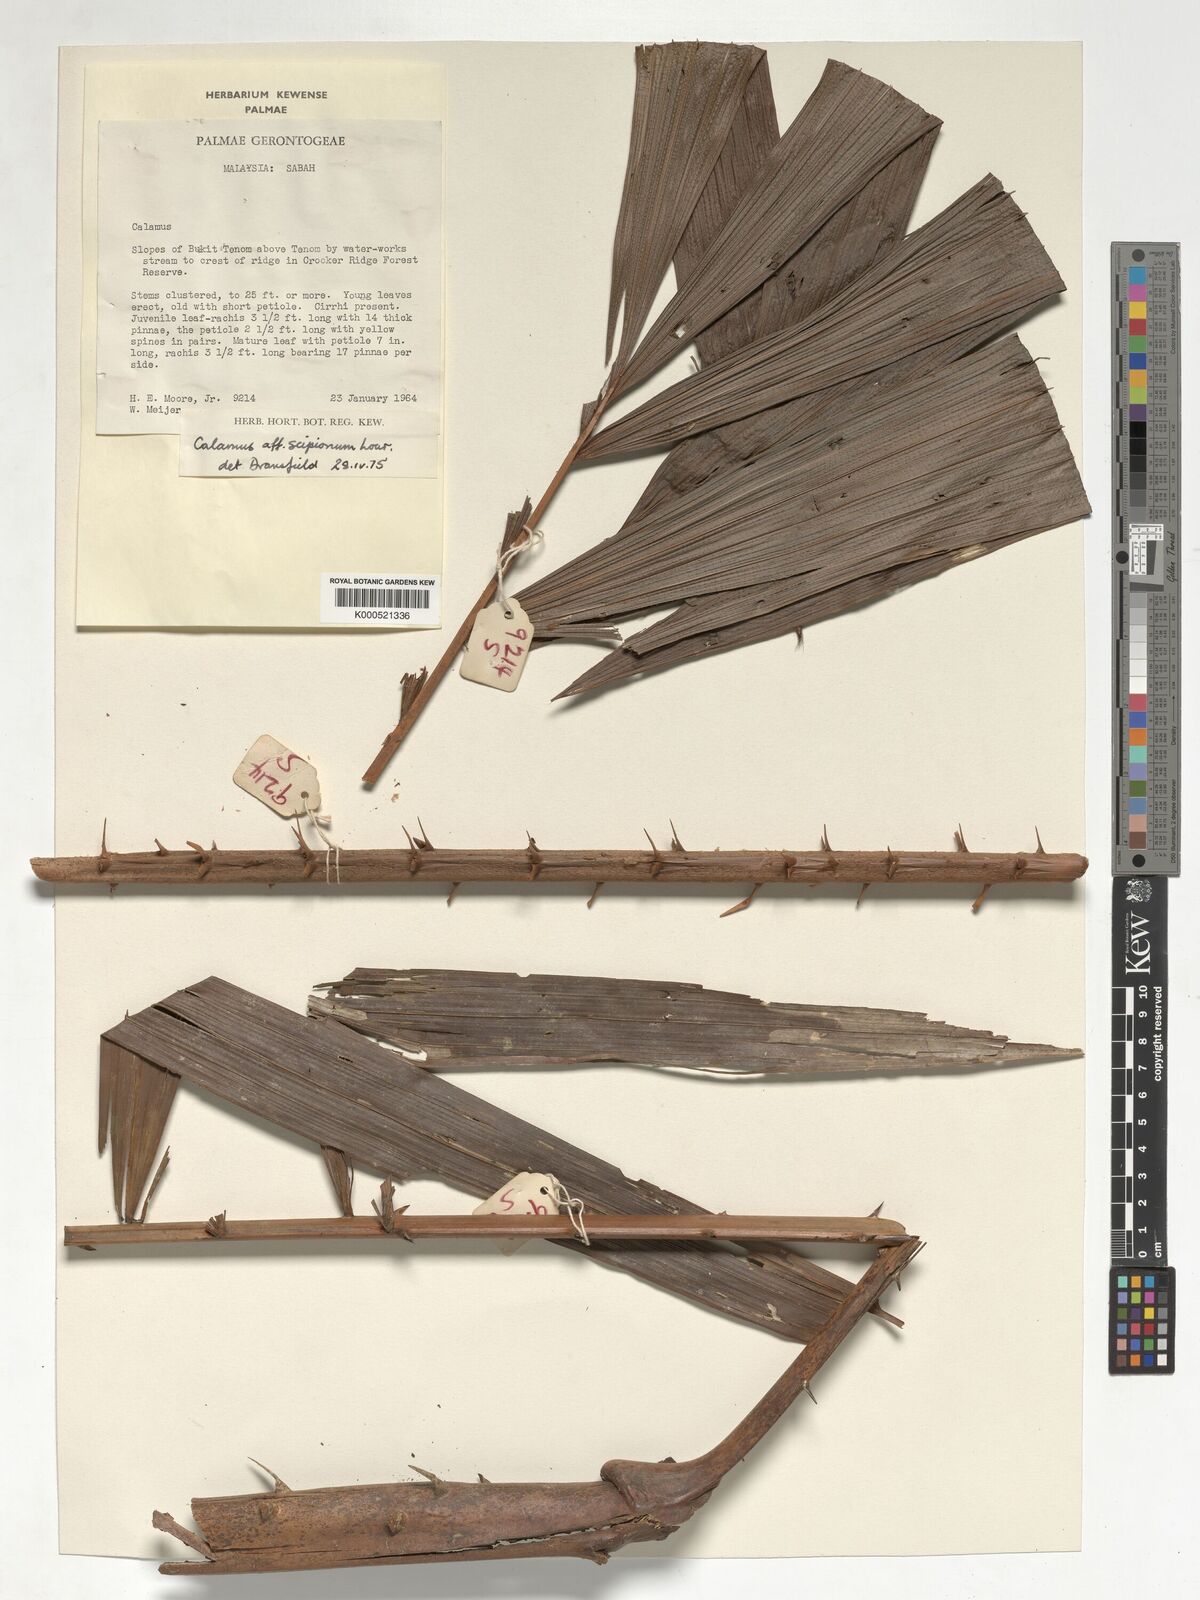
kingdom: Plantae
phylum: Tracheophyta
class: Liliopsida
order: Arecales
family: Arecaceae
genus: Calamus
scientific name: Calamus scipionum
